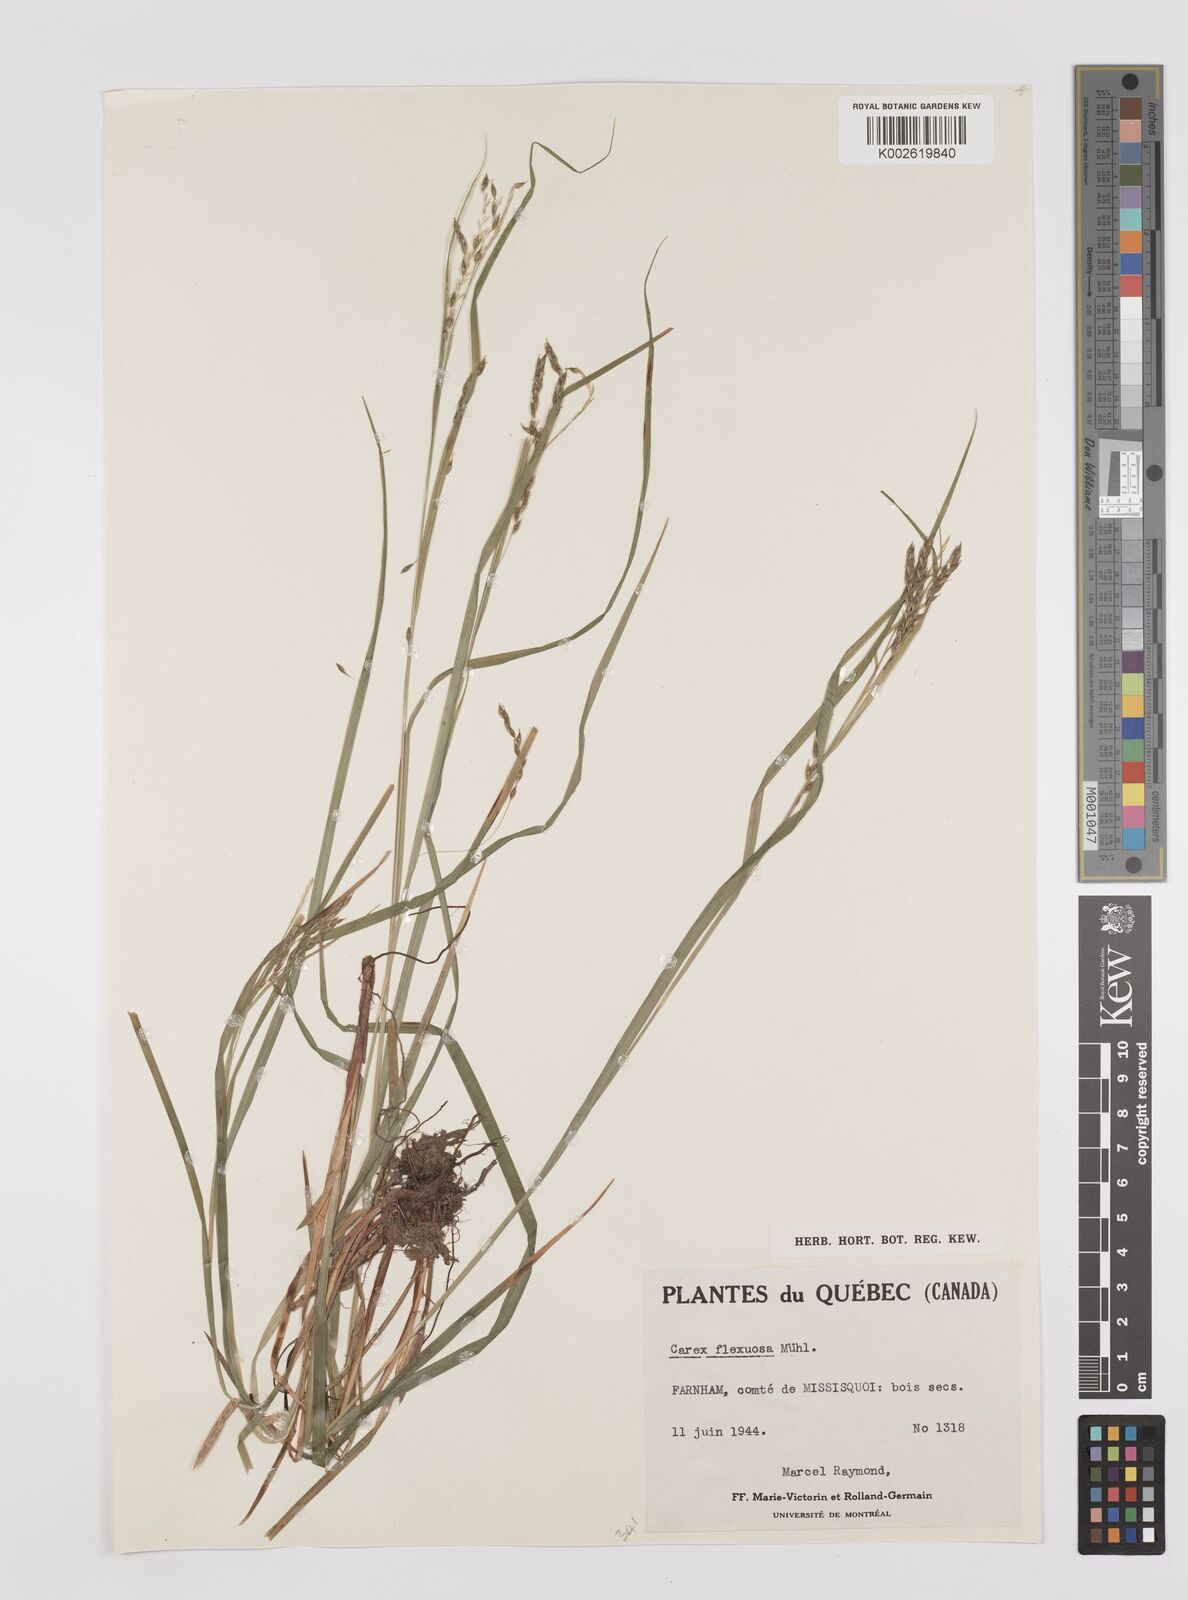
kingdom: Plantae
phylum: Tracheophyta
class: Liliopsida
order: Poales
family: Cyperaceae
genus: Carex
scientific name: Carex debilis
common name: White-edge sedge
